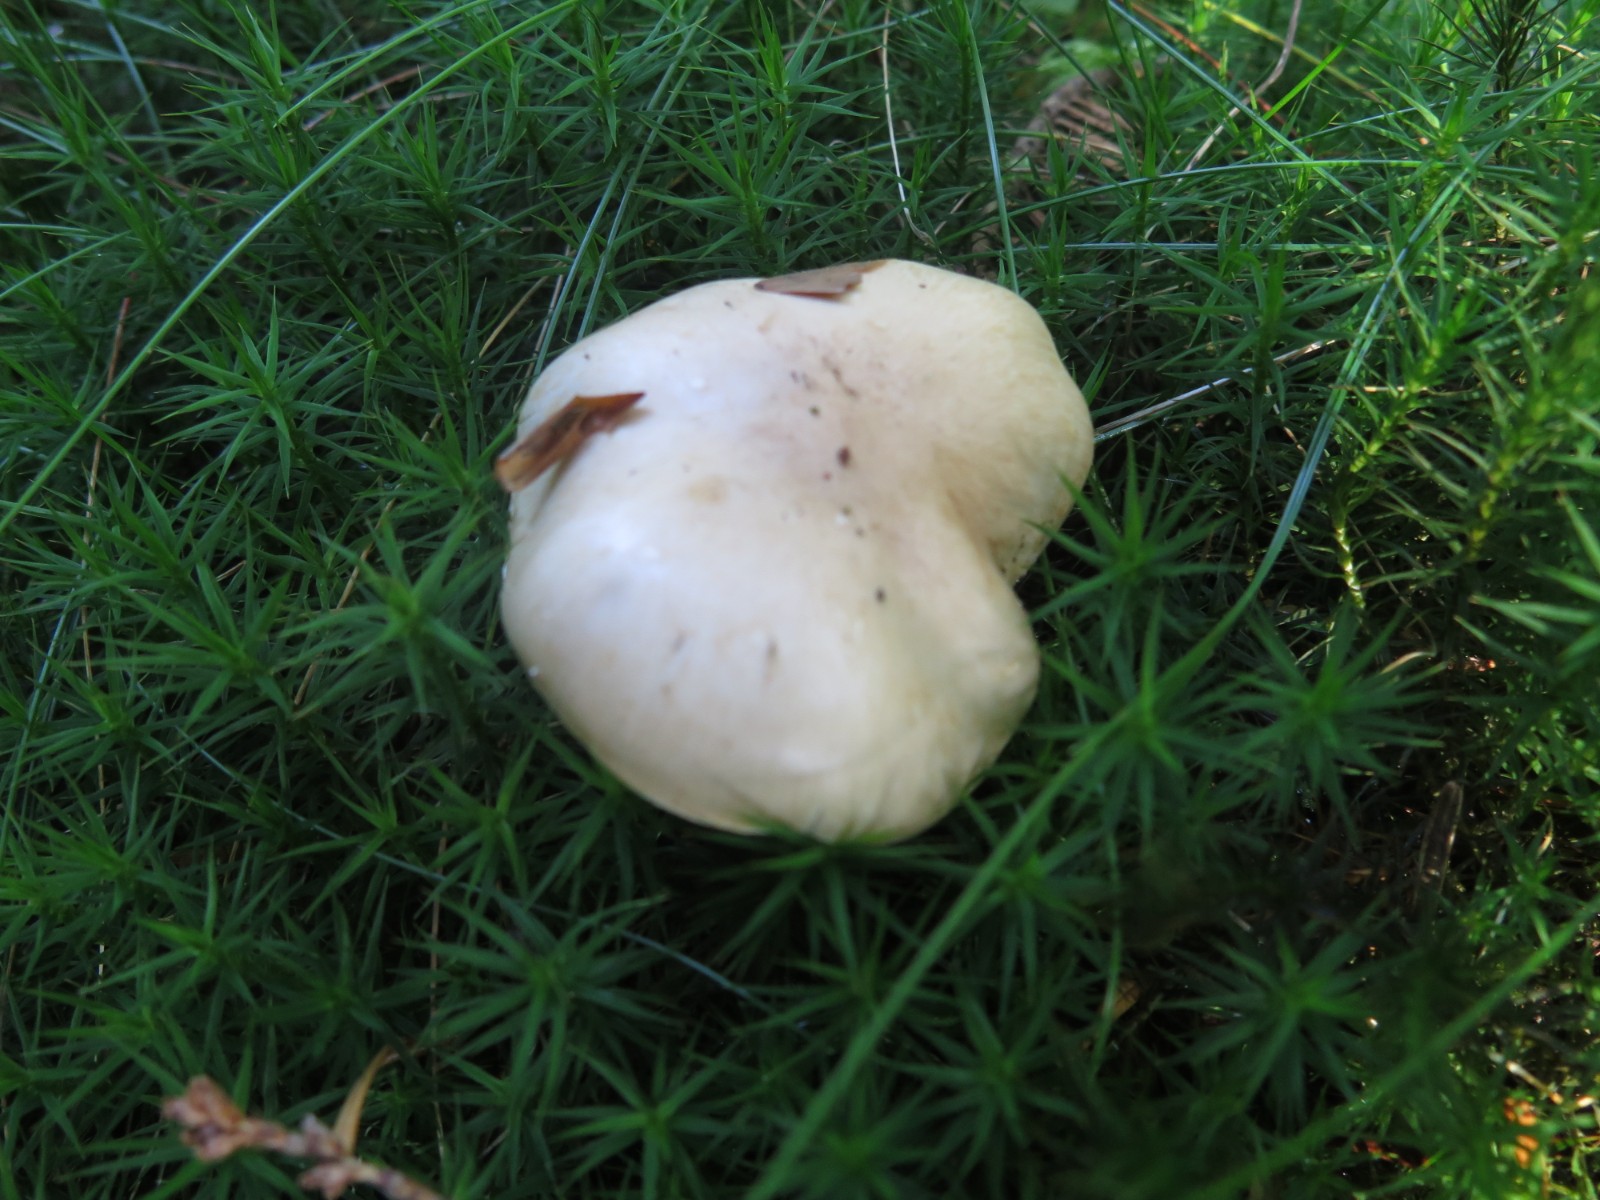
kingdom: Fungi
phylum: Basidiomycota
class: Agaricomycetes
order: Agaricales
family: Strophariaceae
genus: Pholiota
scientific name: Pholiota lenta
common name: løv-skælhat
